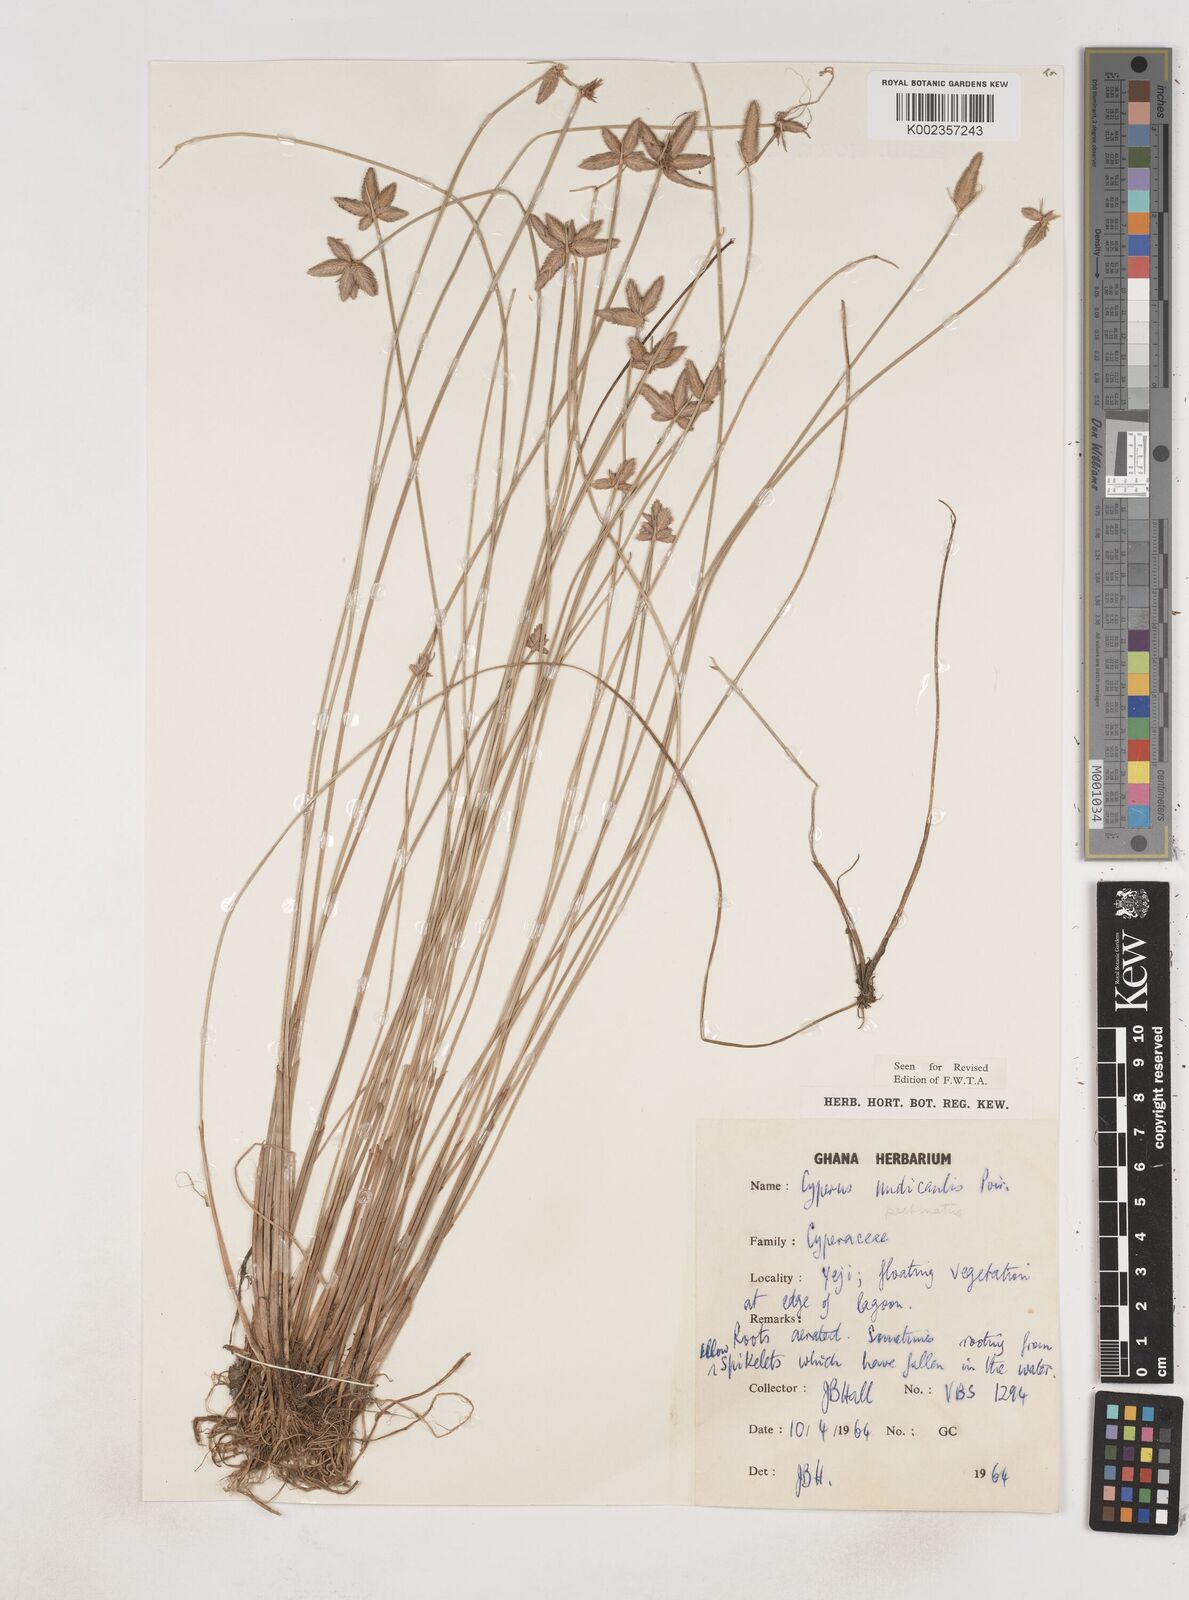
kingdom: Plantae
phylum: Tracheophyta
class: Liliopsida
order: Poales
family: Cyperaceae
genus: Cyperus
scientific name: Cyperus pectinatus
